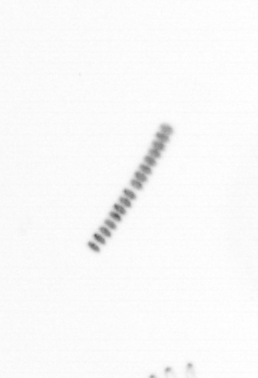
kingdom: Chromista
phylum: Ochrophyta
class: Bacillariophyceae
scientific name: Bacillariophyceae
